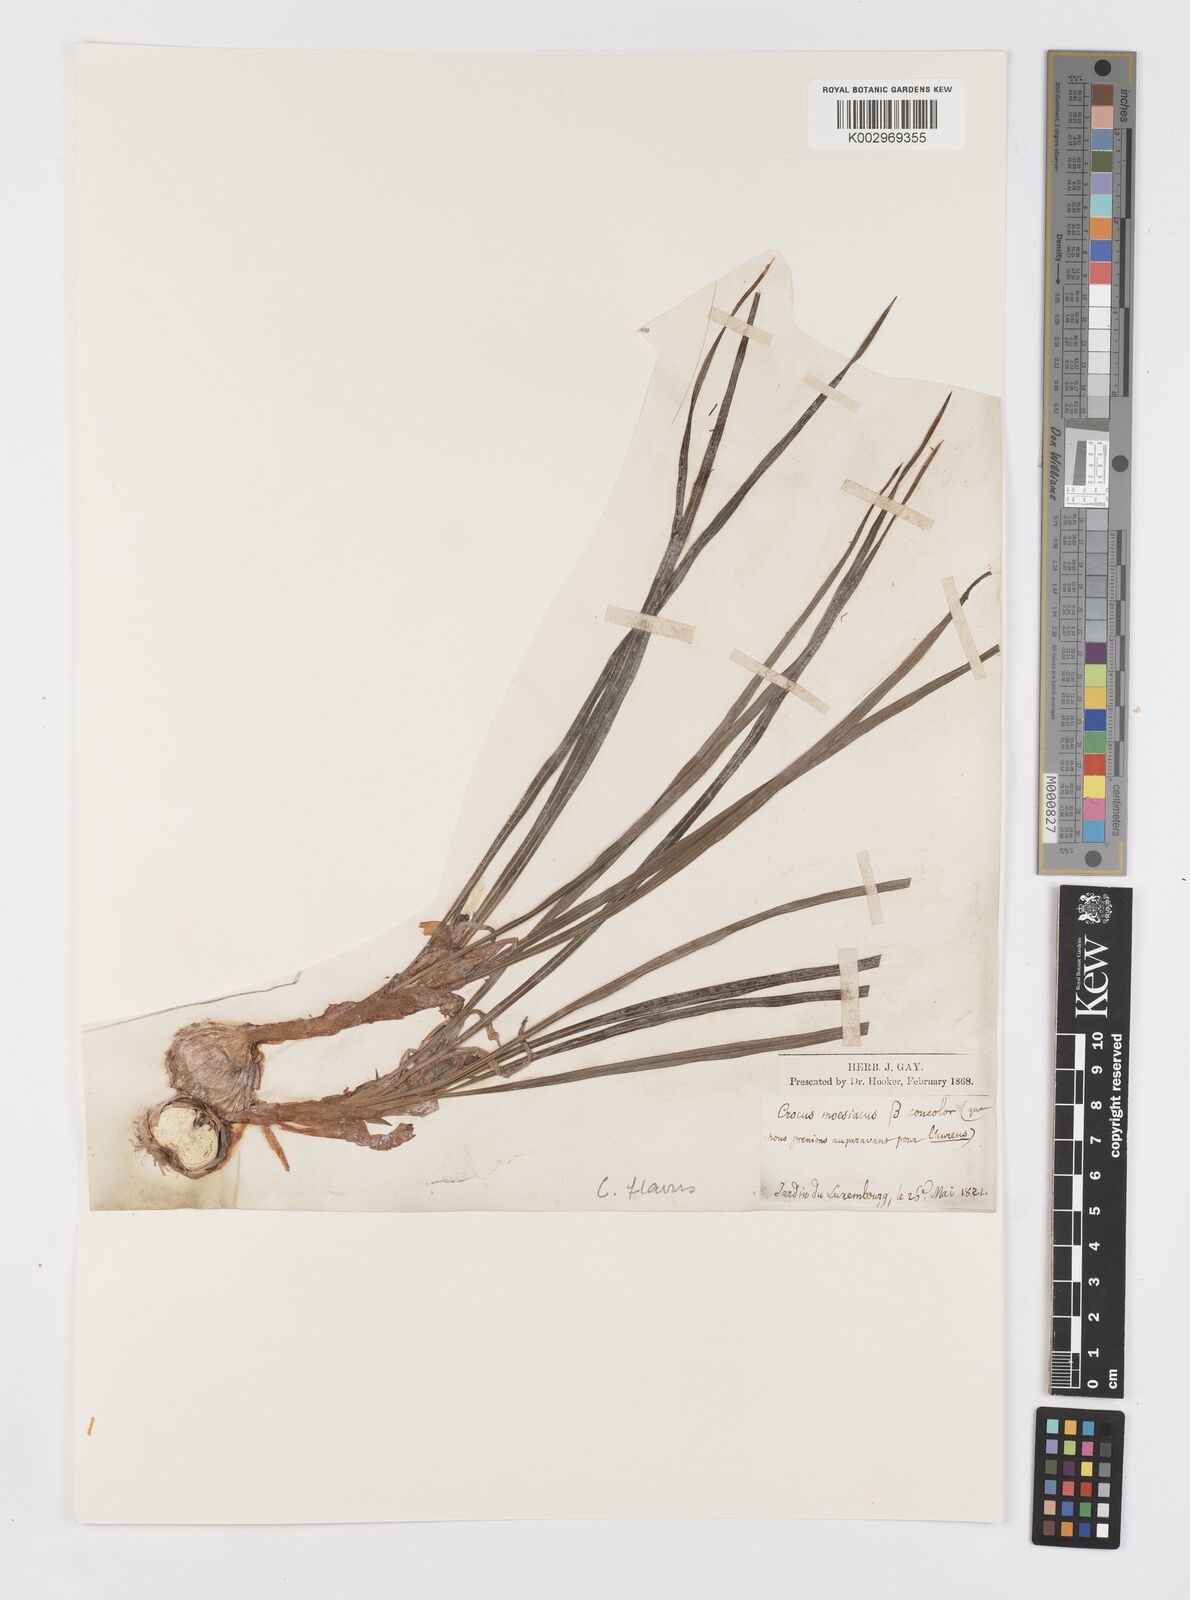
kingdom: Plantae
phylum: Tracheophyta
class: Liliopsida
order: Asparagales
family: Iridaceae
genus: Crocus
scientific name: Crocus flavus
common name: Yellow crocus
